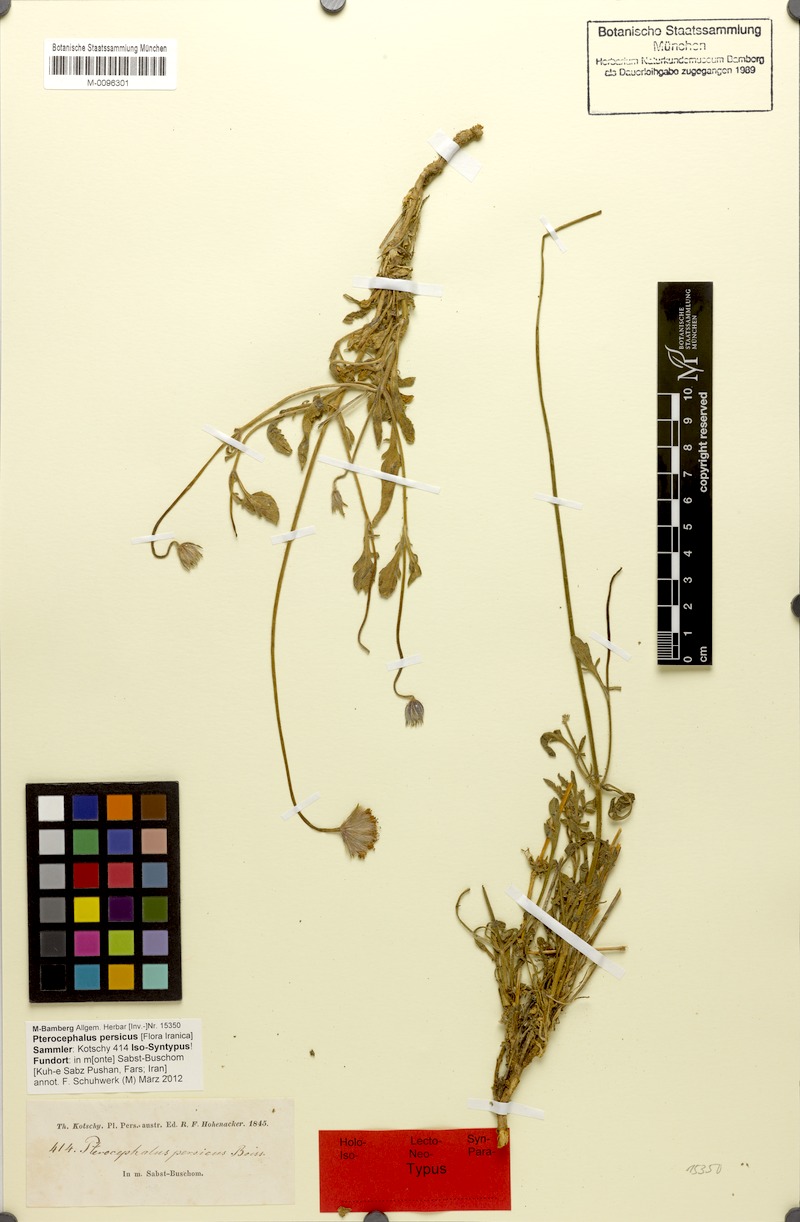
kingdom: Plantae
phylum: Tracheophyta
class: Magnoliopsida
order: Dipsacales
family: Caprifoliaceae
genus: Pterocephalus
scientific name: Pterocephalus persicus
